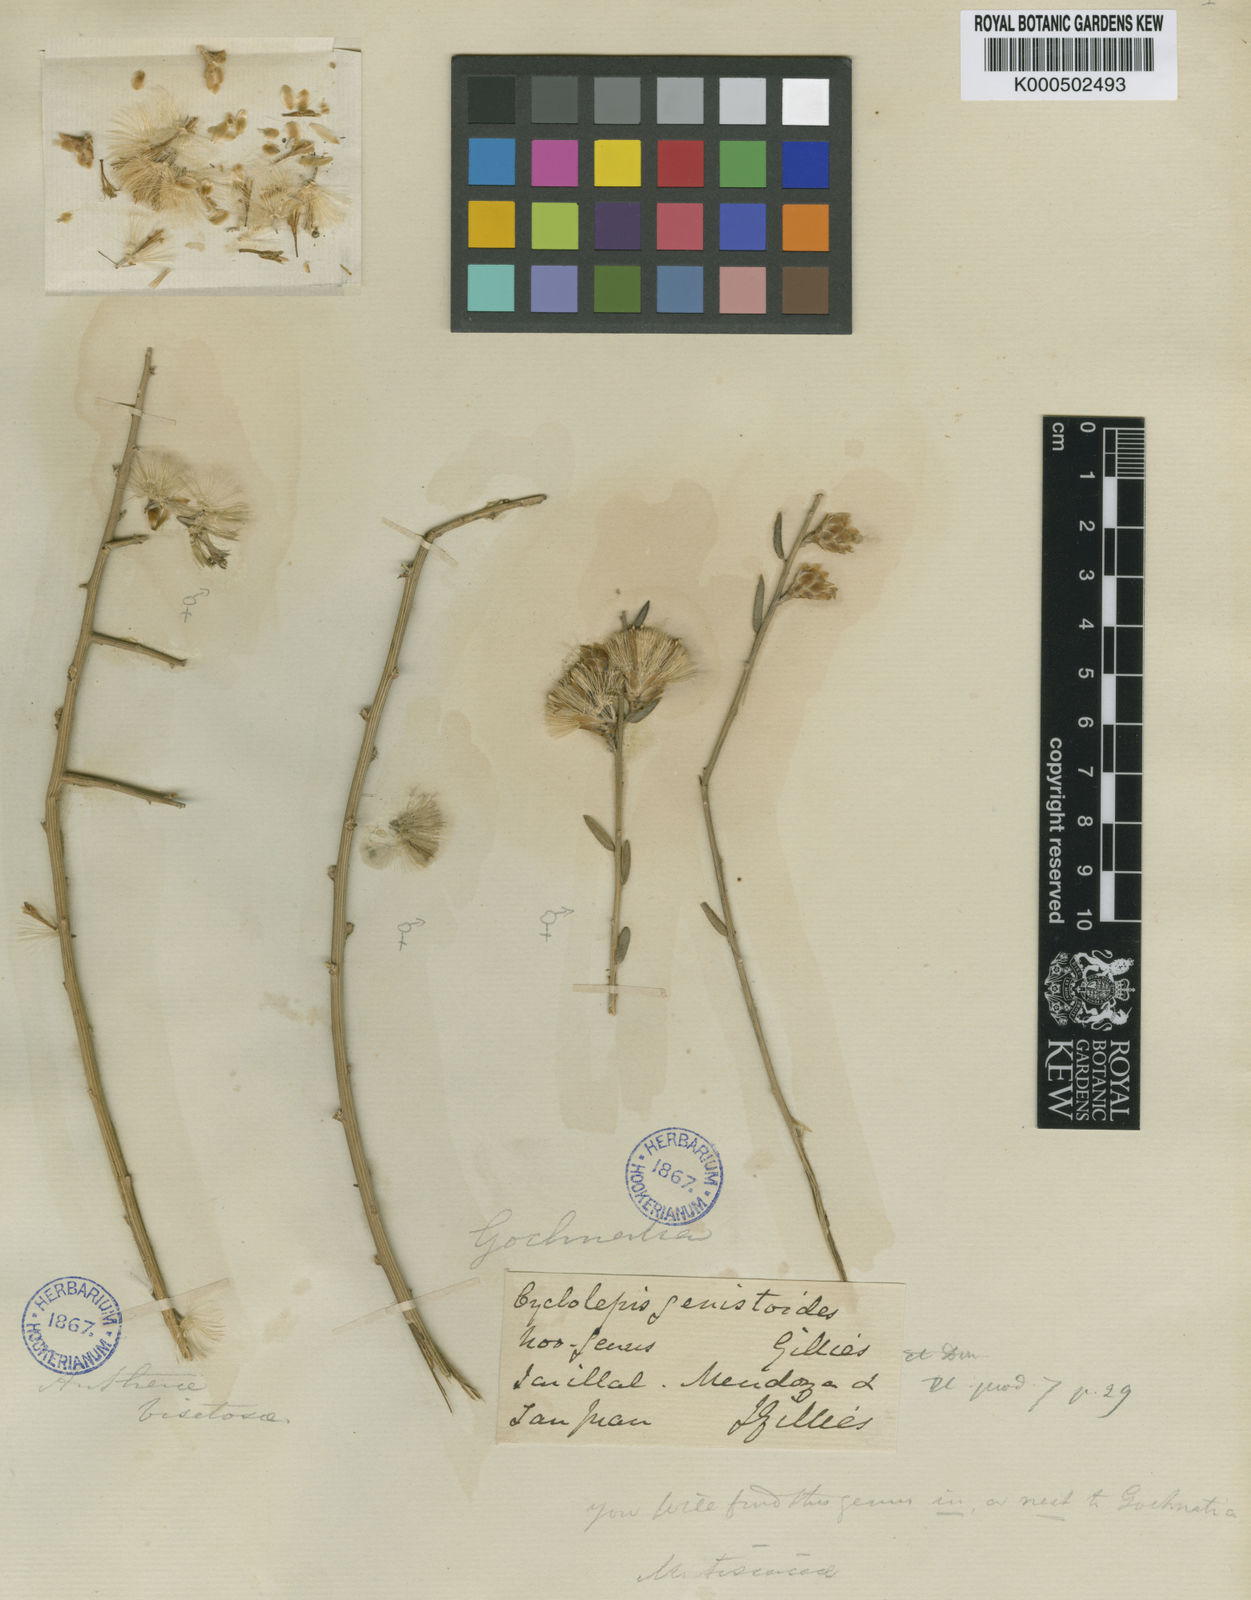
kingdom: Plantae
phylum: Tracheophyta
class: Magnoliopsida
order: Asterales
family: Asteraceae
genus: Cyclolepis
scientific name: Cyclolepis genistoides
